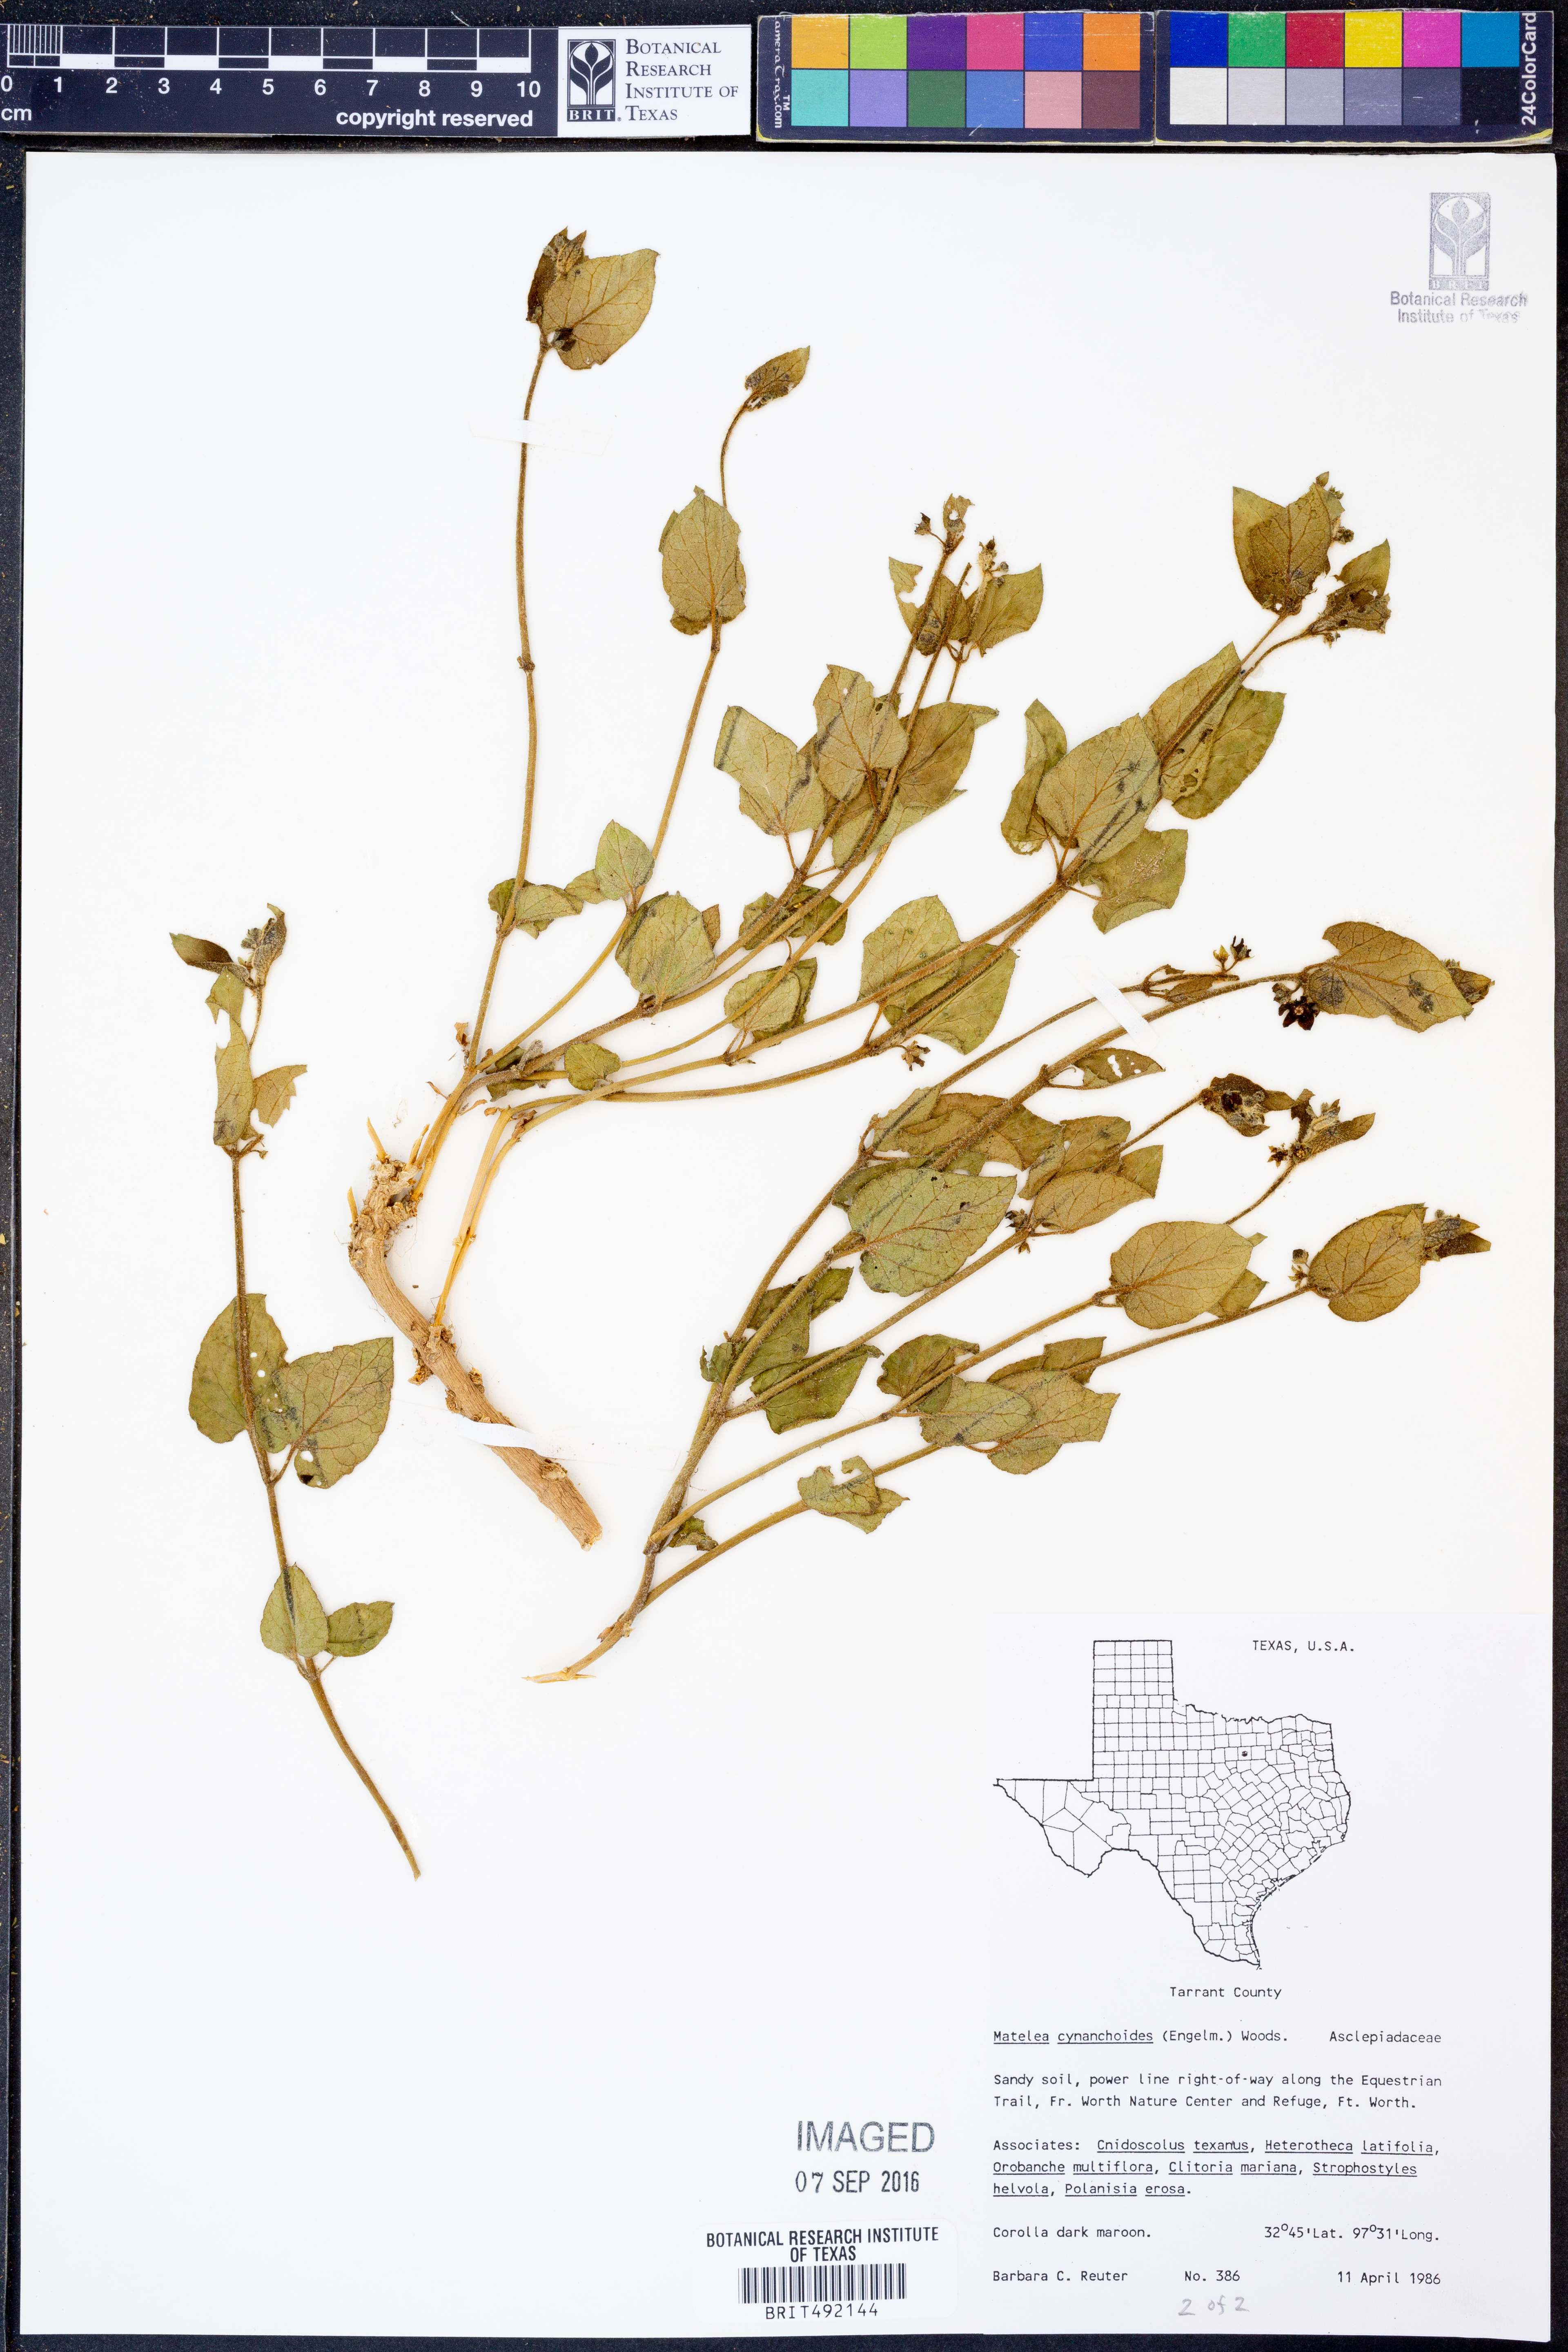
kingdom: Plantae
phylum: Tracheophyta
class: Magnoliopsida
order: Gentianales
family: Apocynaceae
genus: Matelea
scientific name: Matelea cynanchoides
